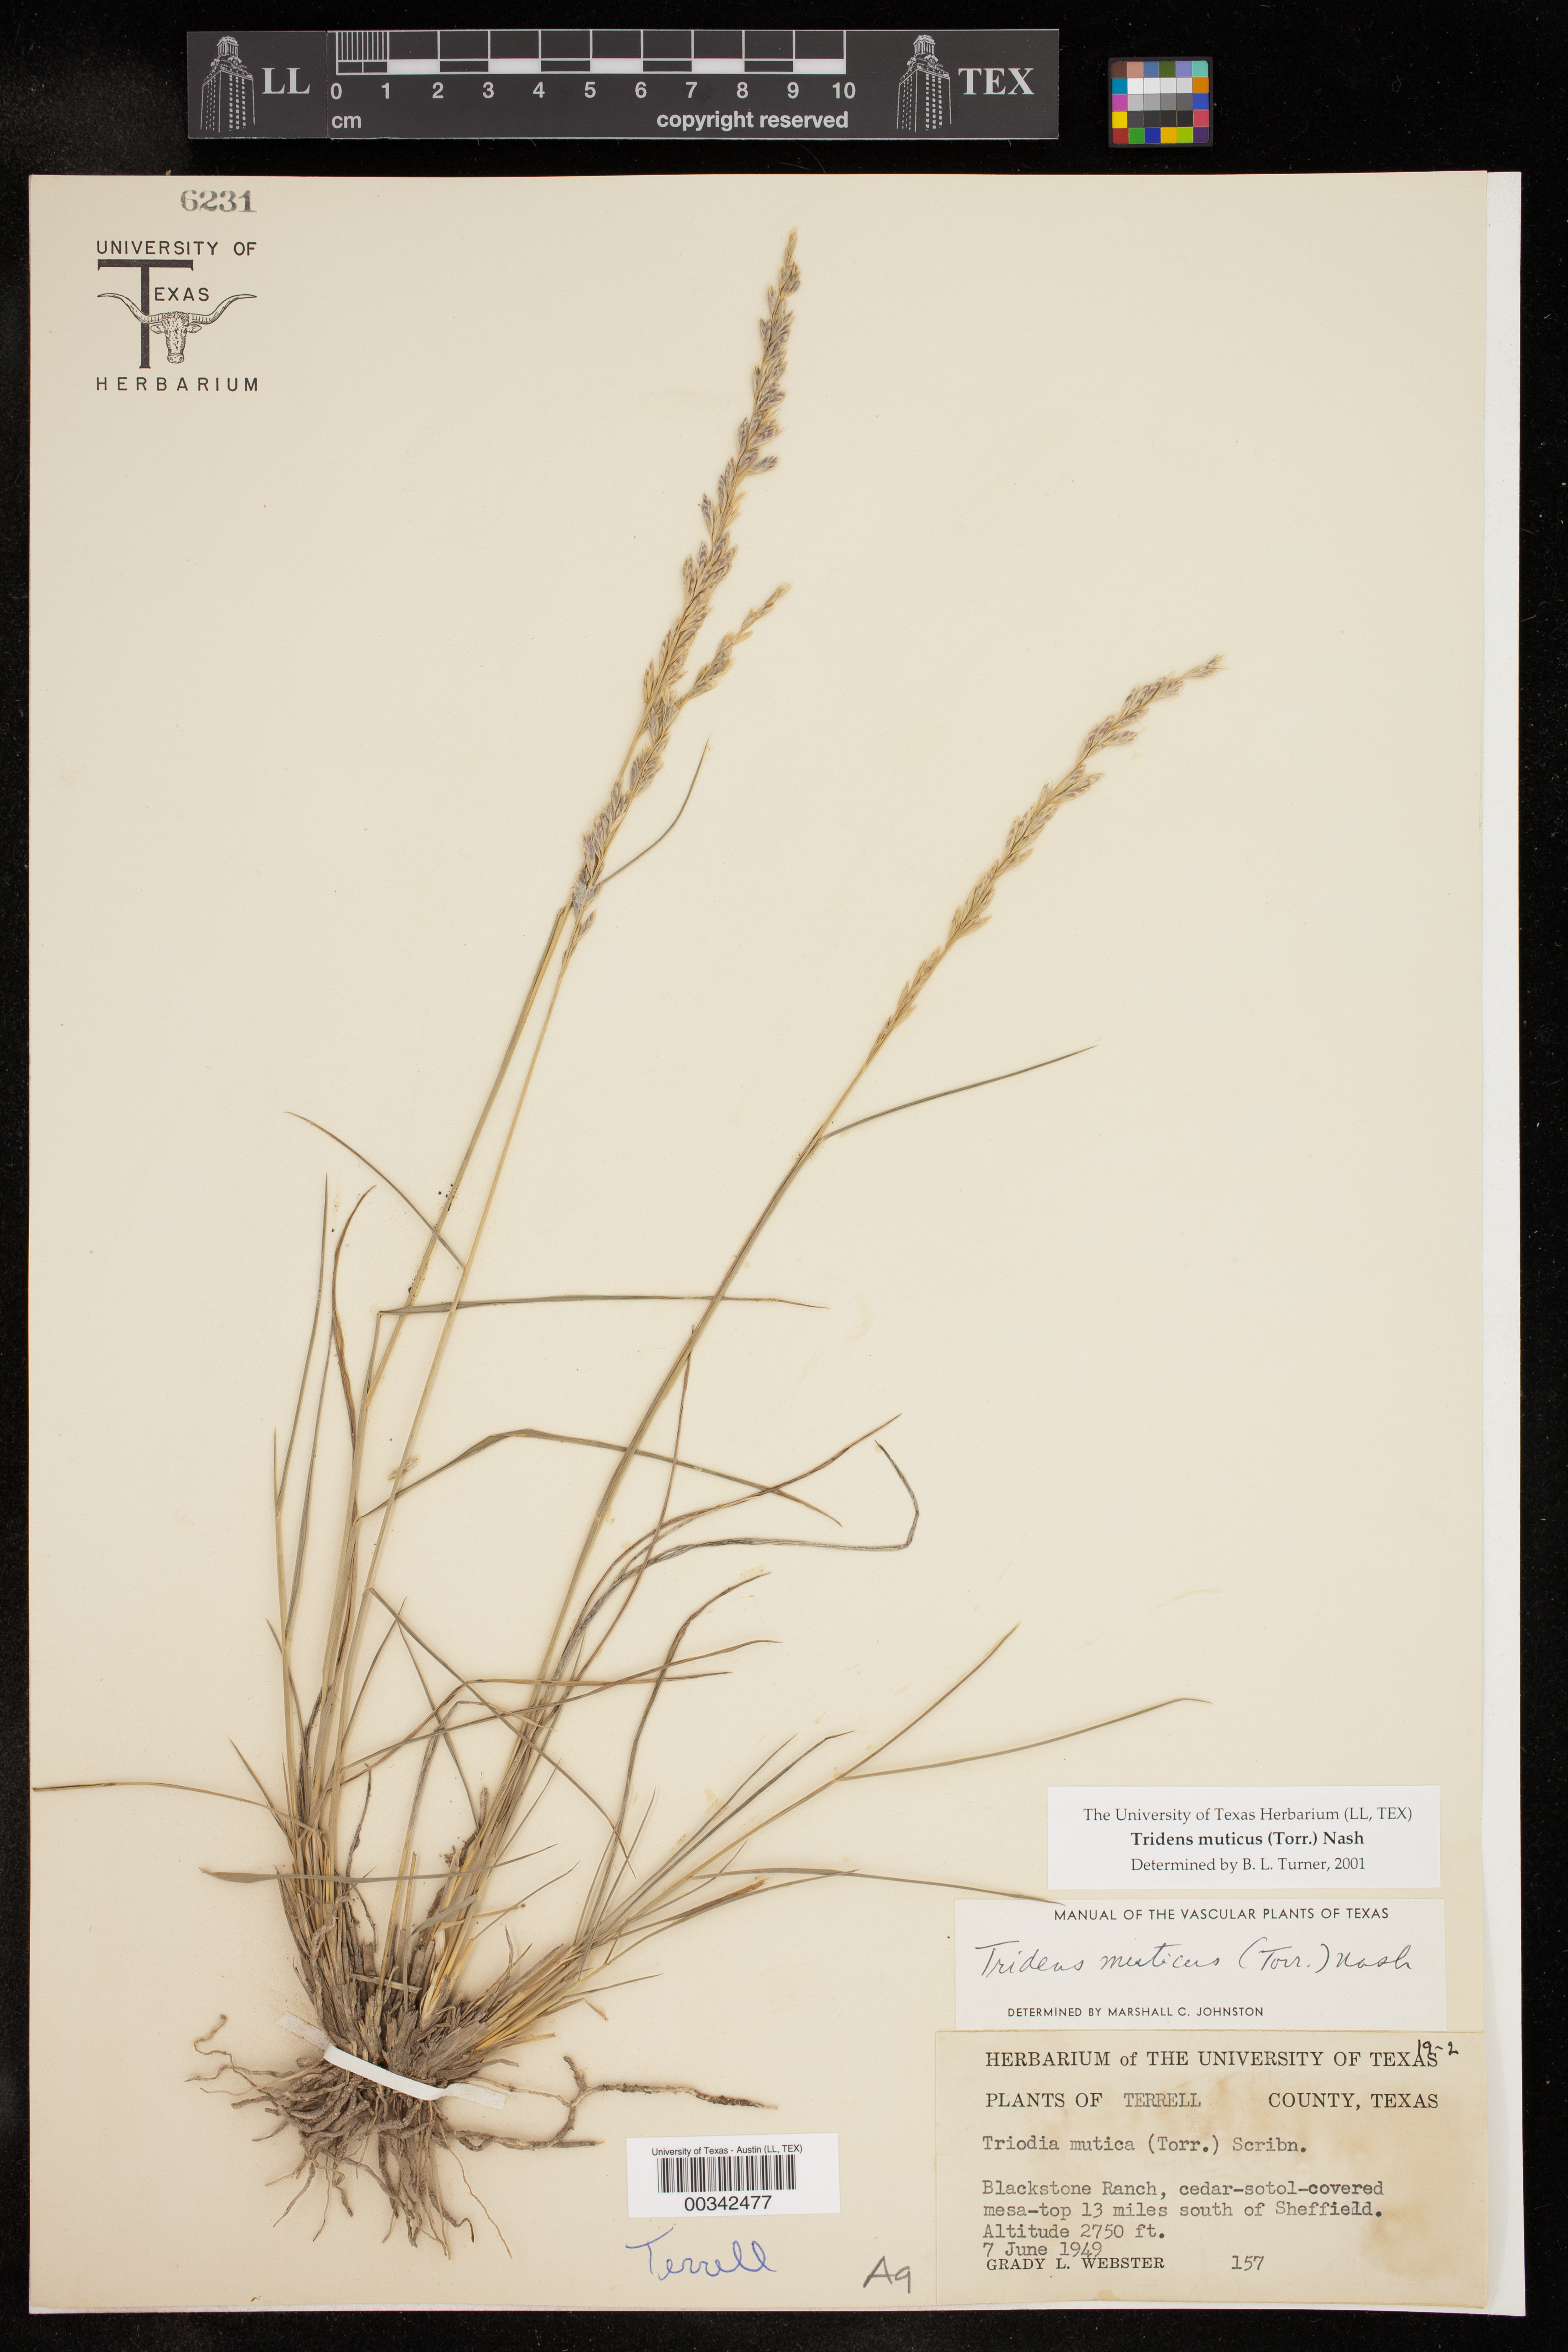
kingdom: Plantae
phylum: Tracheophyta
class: Liliopsida
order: Poales
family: Poaceae
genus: Tridentopsis
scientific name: Tridentopsis mutica
